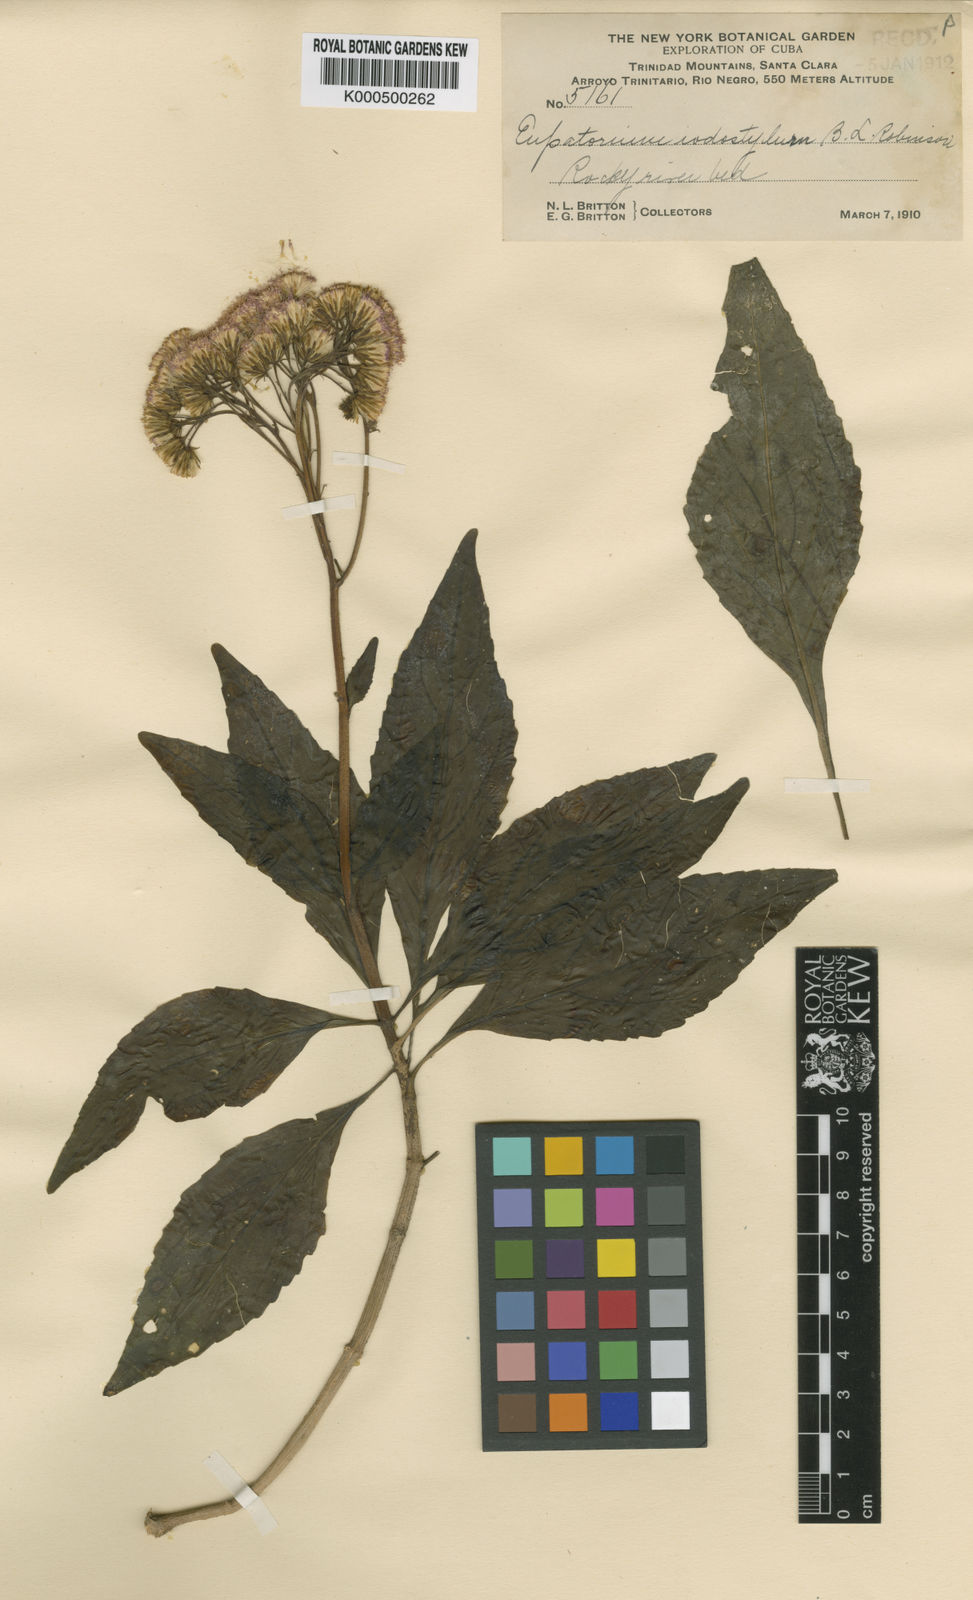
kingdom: Plantae
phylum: Tracheophyta
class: Magnoliopsida
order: Asterales
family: Asteraceae
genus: Spaniopappus
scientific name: Spaniopappus iodostylus
